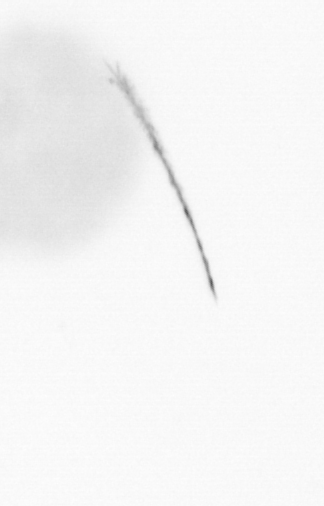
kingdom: Chromista
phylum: Ochrophyta
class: Bacillariophyceae
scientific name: Bacillariophyceae
